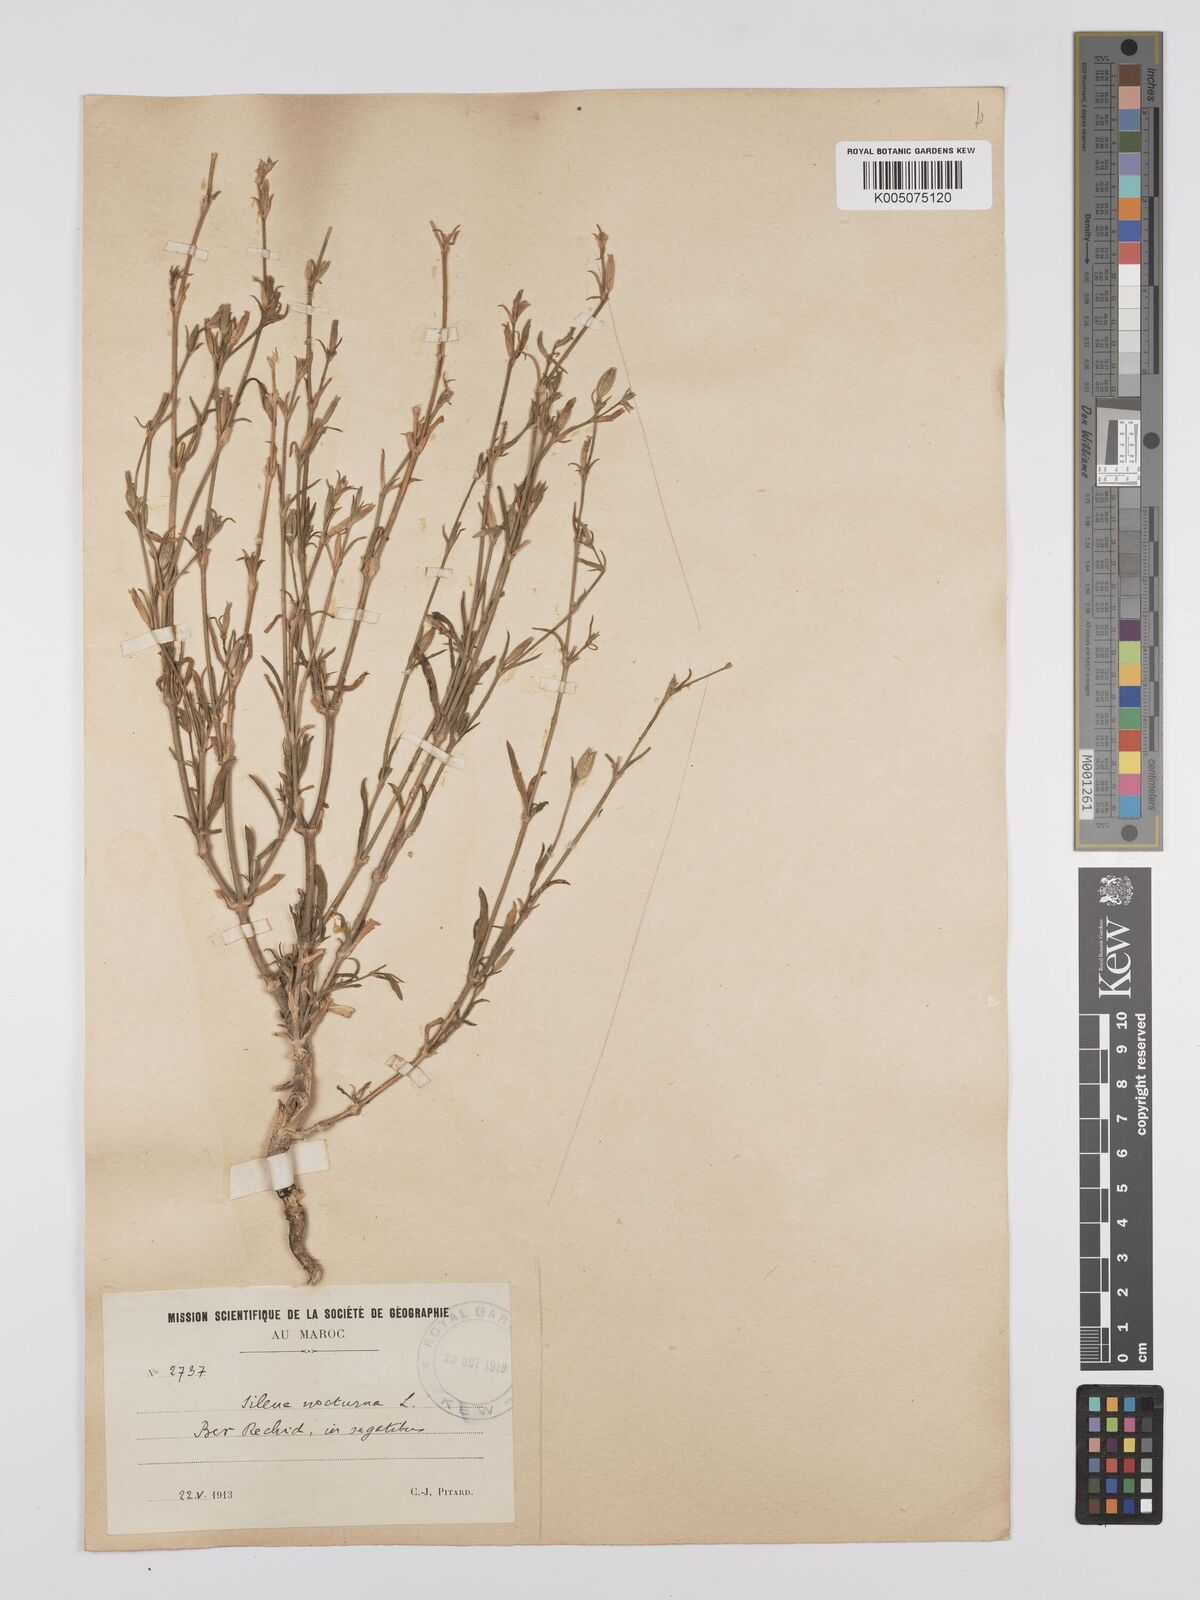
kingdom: Plantae
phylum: Tracheophyta
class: Magnoliopsida
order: Caryophyllales
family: Caryophyllaceae
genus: Silene
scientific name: Silene nocturna
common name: Mediterranean catchfly
